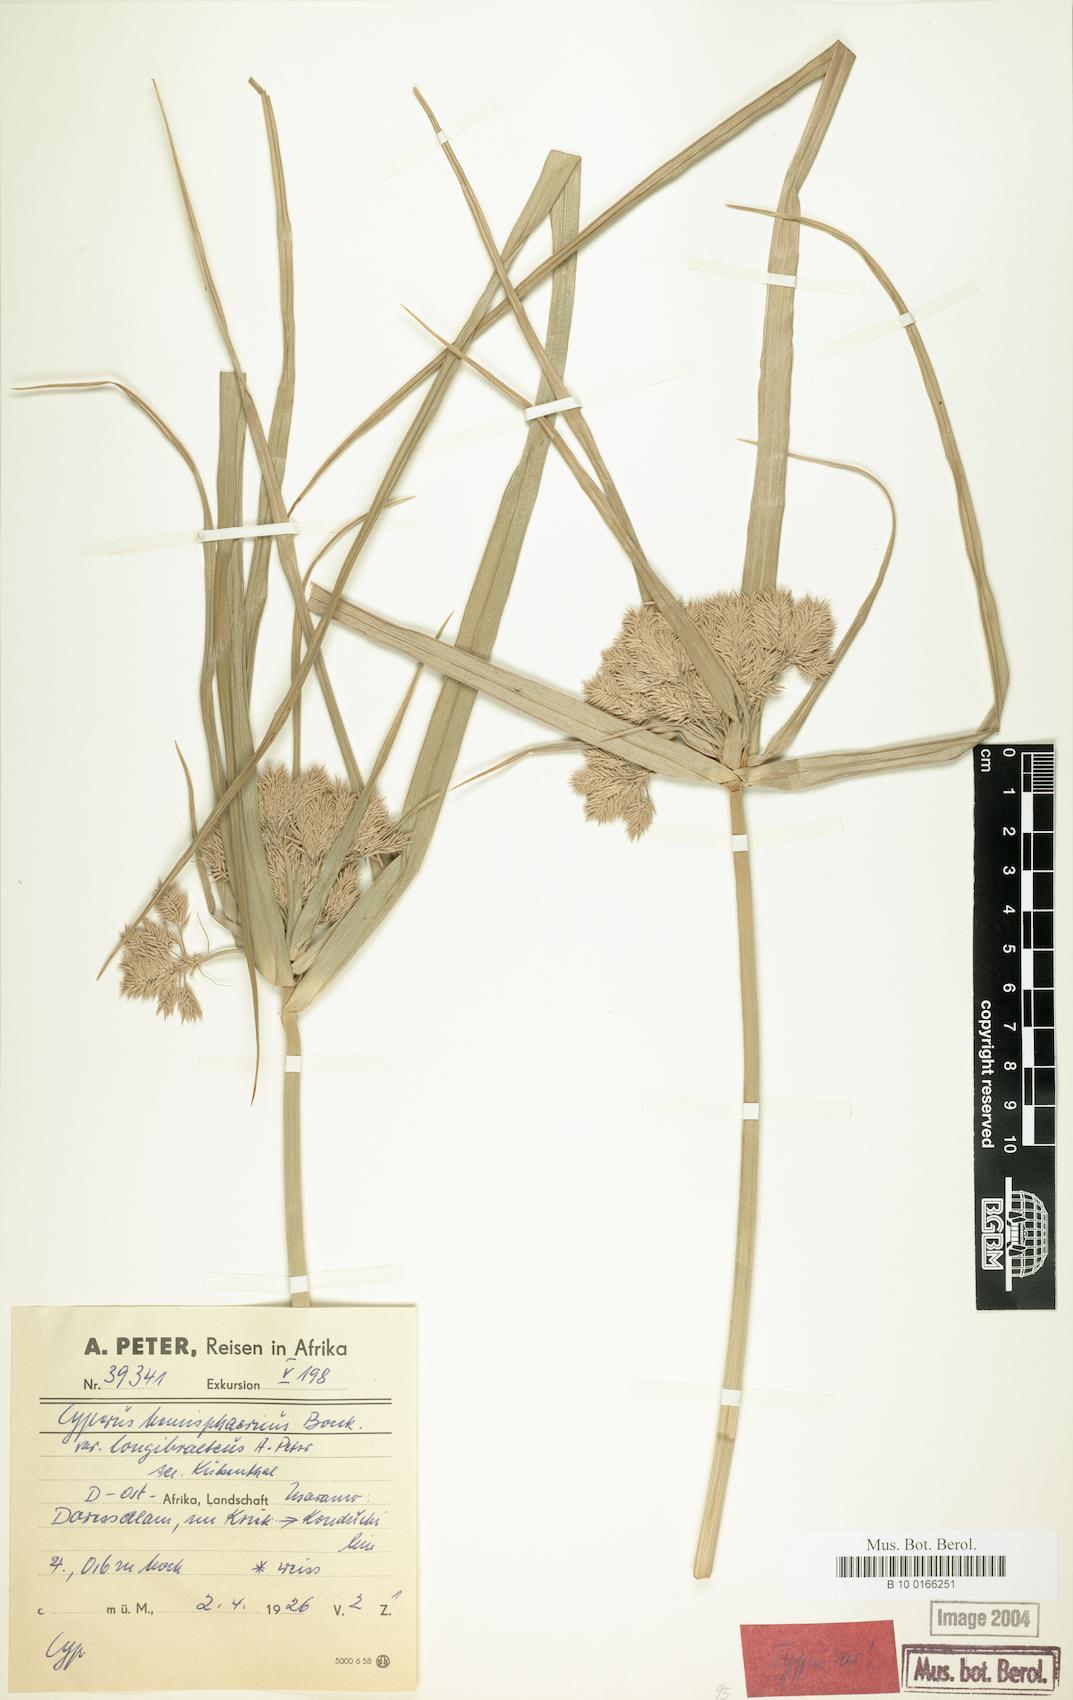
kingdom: Plantae
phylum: Tracheophyta
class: Liliopsida
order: Poales
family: Cyperaceae
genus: Cyperus
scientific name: Cyperus hemisphaericus
